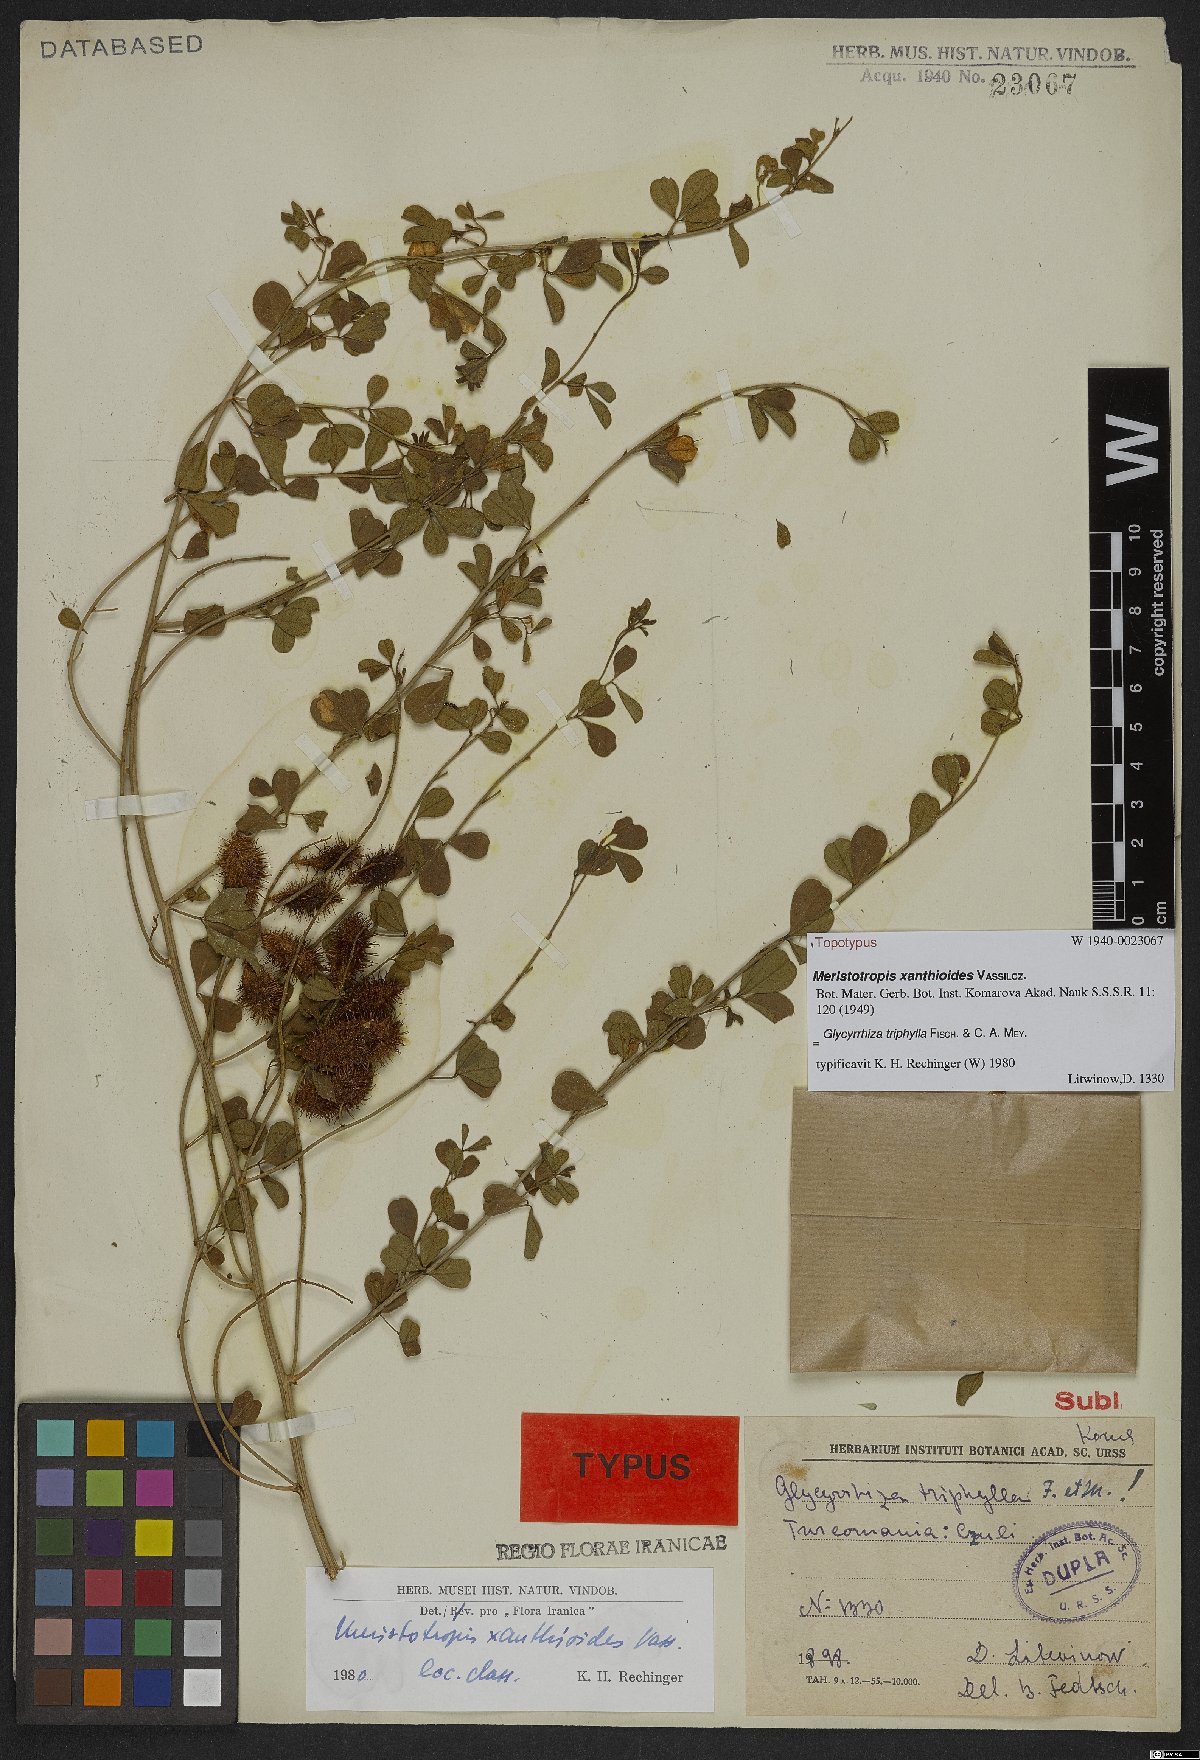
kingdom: Plantae
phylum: Tracheophyta
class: Magnoliopsida
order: Fabales
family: Fabaceae
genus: Glycyrrhiza
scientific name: Glycyrrhiza triphylla
